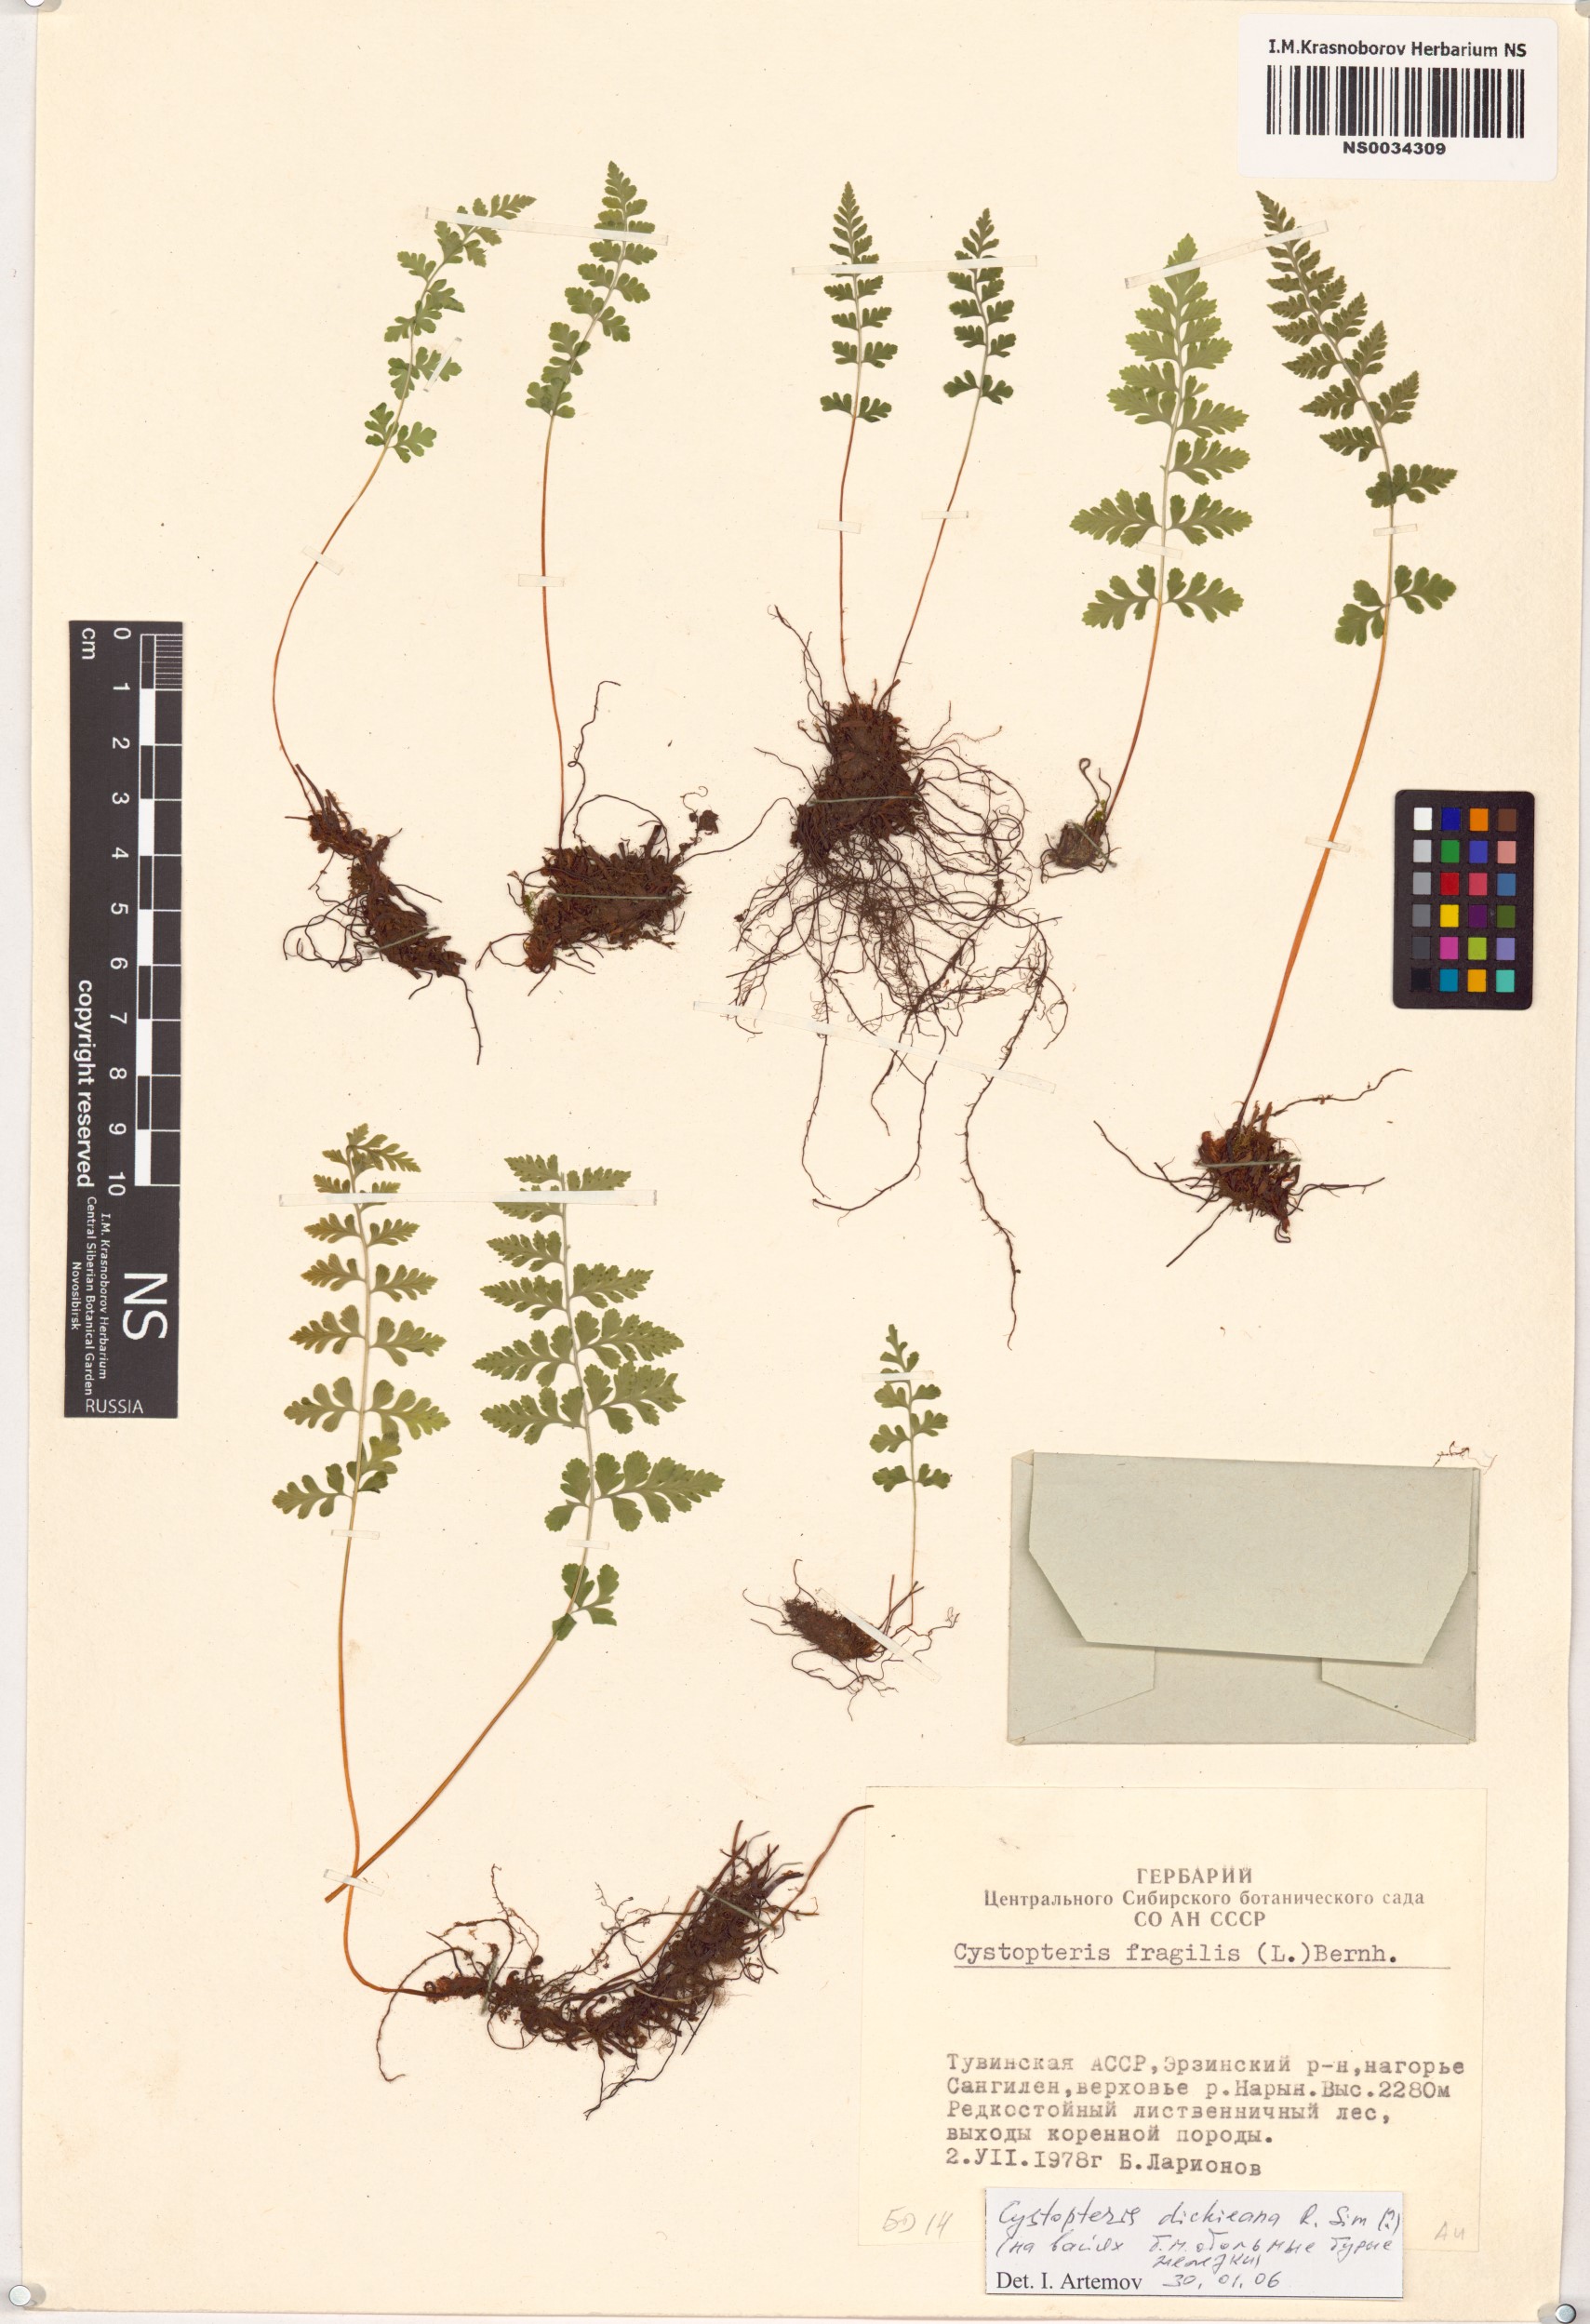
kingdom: Plantae
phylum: Tracheophyta
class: Polypodiopsida
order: Polypodiales
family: Cystopteridaceae
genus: Cystopteris
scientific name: Cystopteris dickieana
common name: Dickie's bladder-fern
